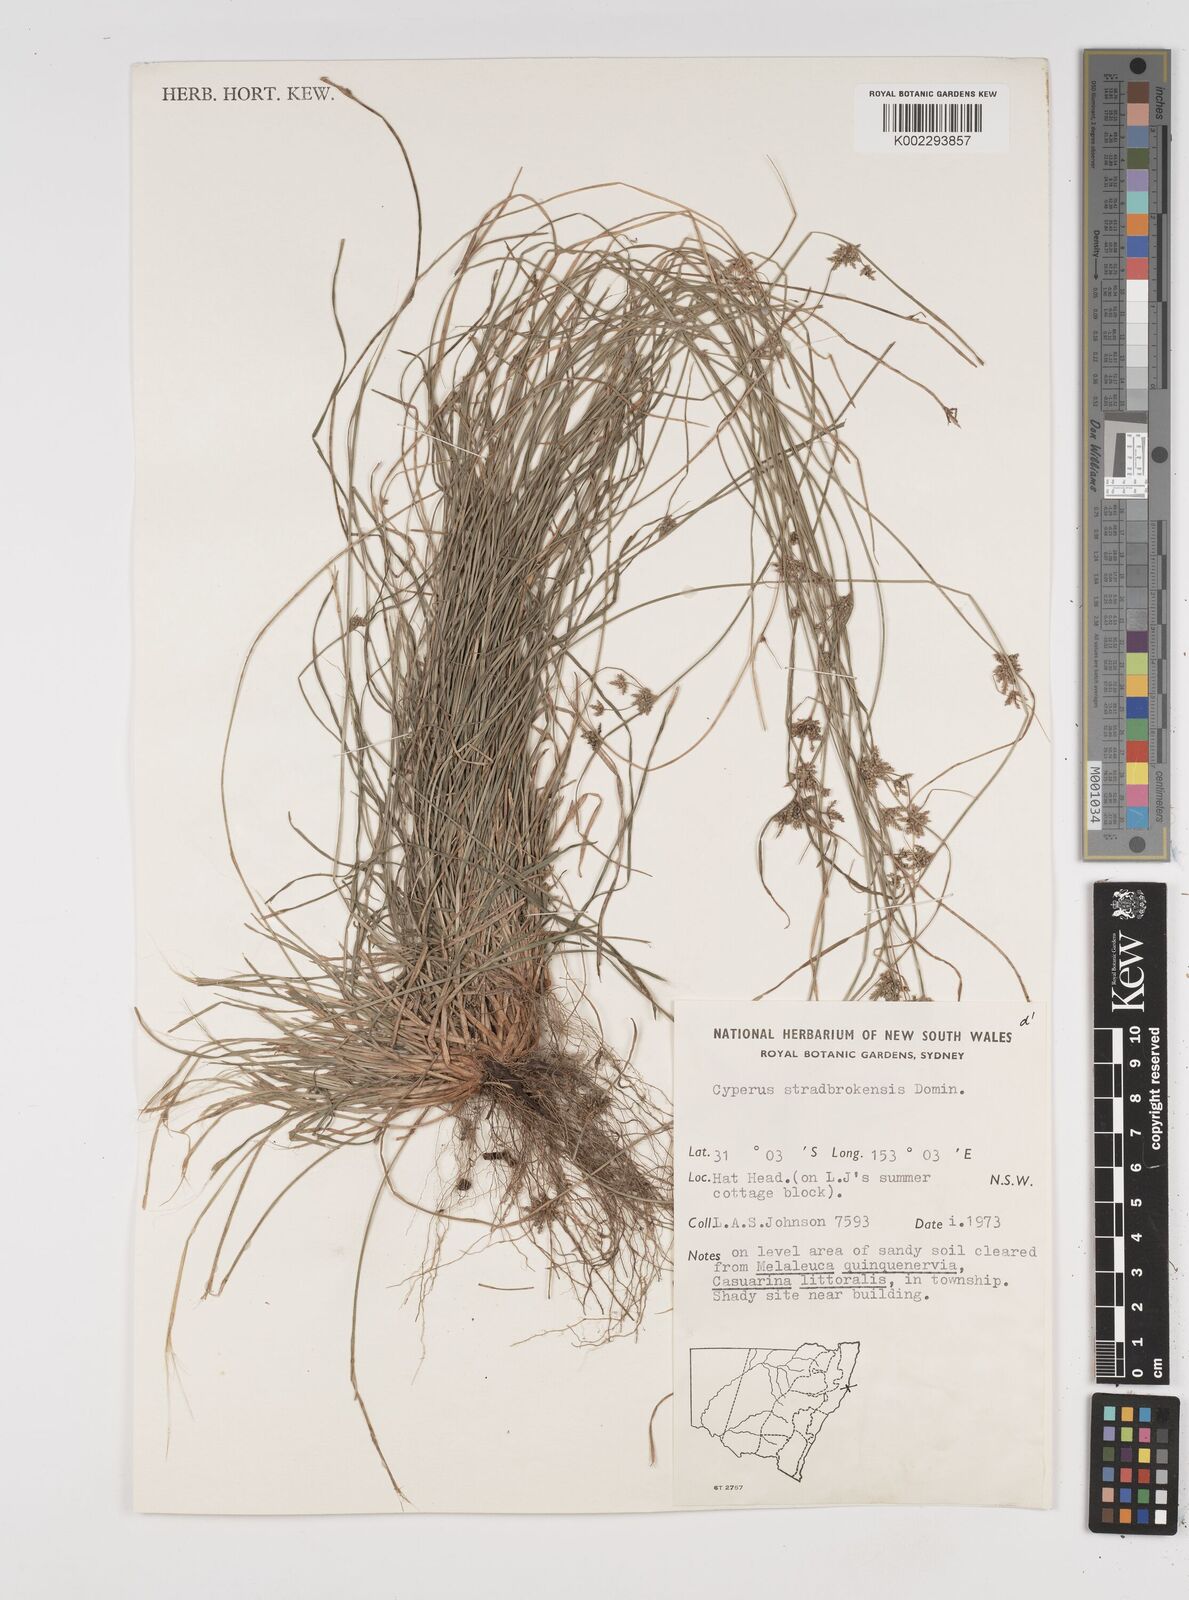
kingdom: Plantae
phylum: Tracheophyta
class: Liliopsida
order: Poales
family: Cyperaceae
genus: Cyperus
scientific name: Cyperus stradbrokensis
